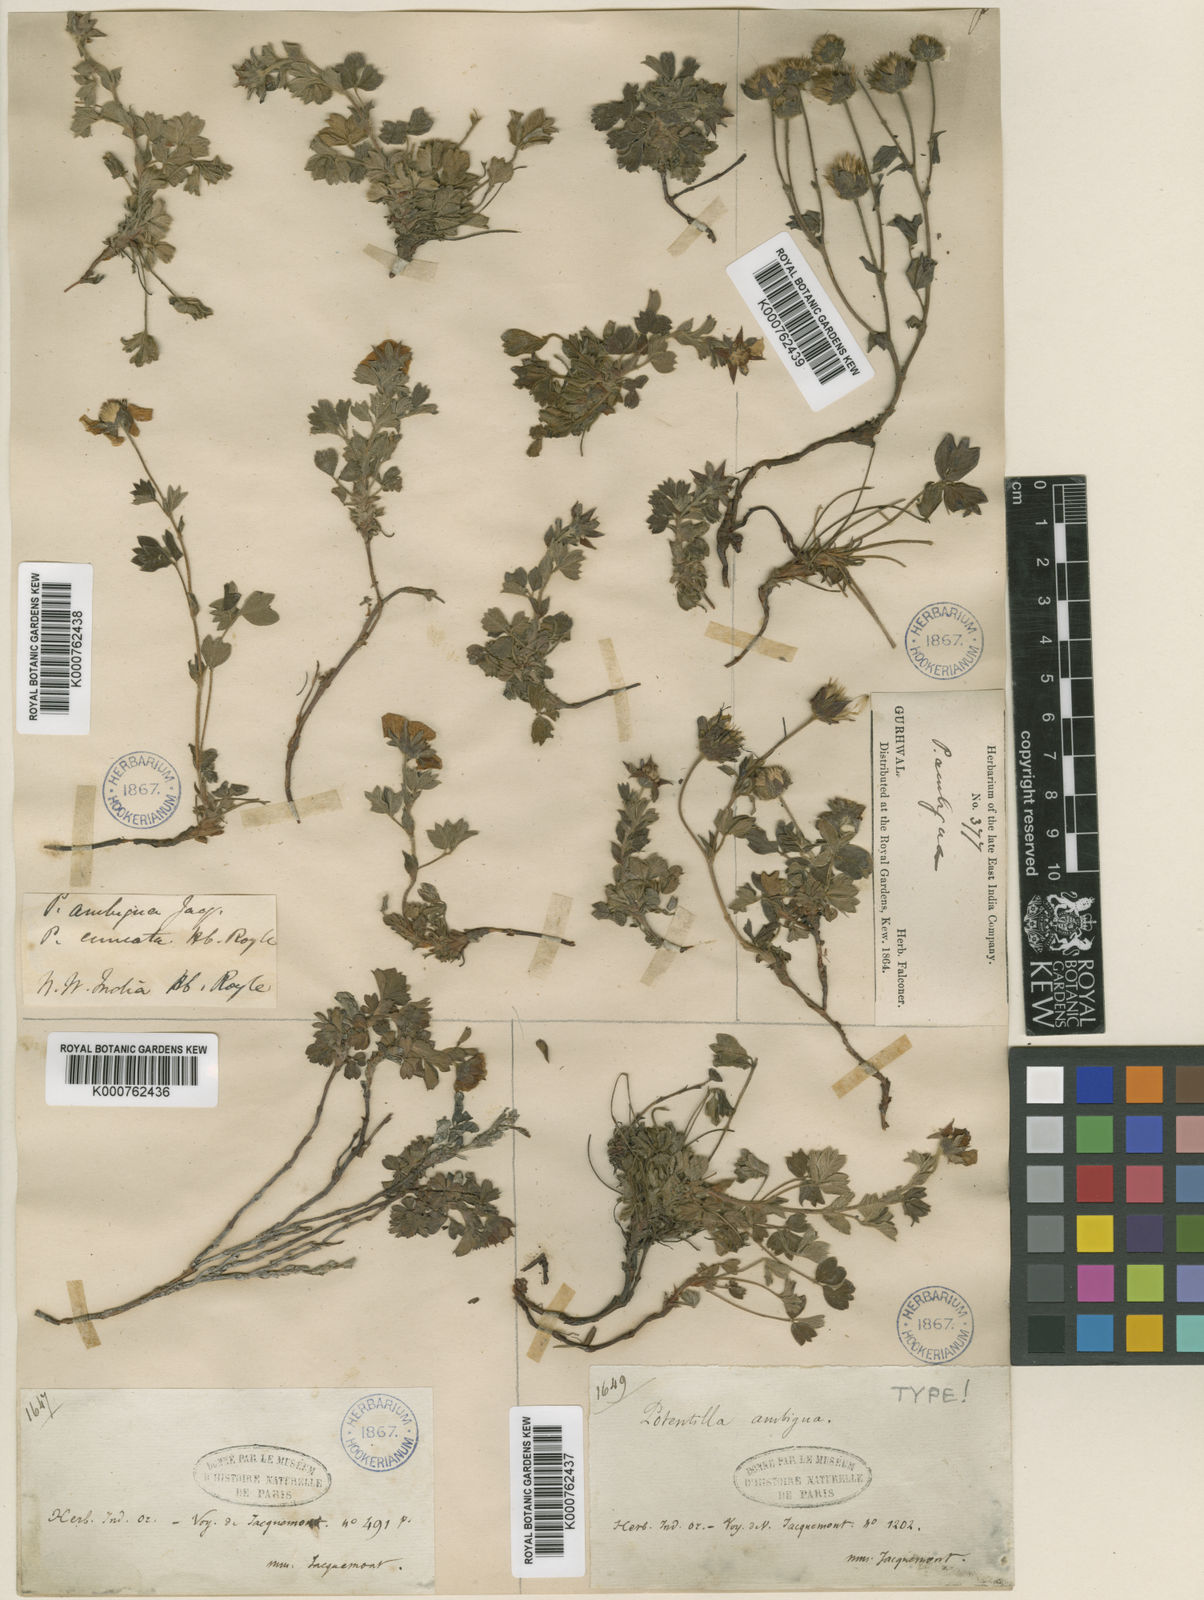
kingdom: Plantae
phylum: Tracheophyta
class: Magnoliopsida
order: Rosales
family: Rosaceae
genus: Potentilla
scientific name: Potentilla
